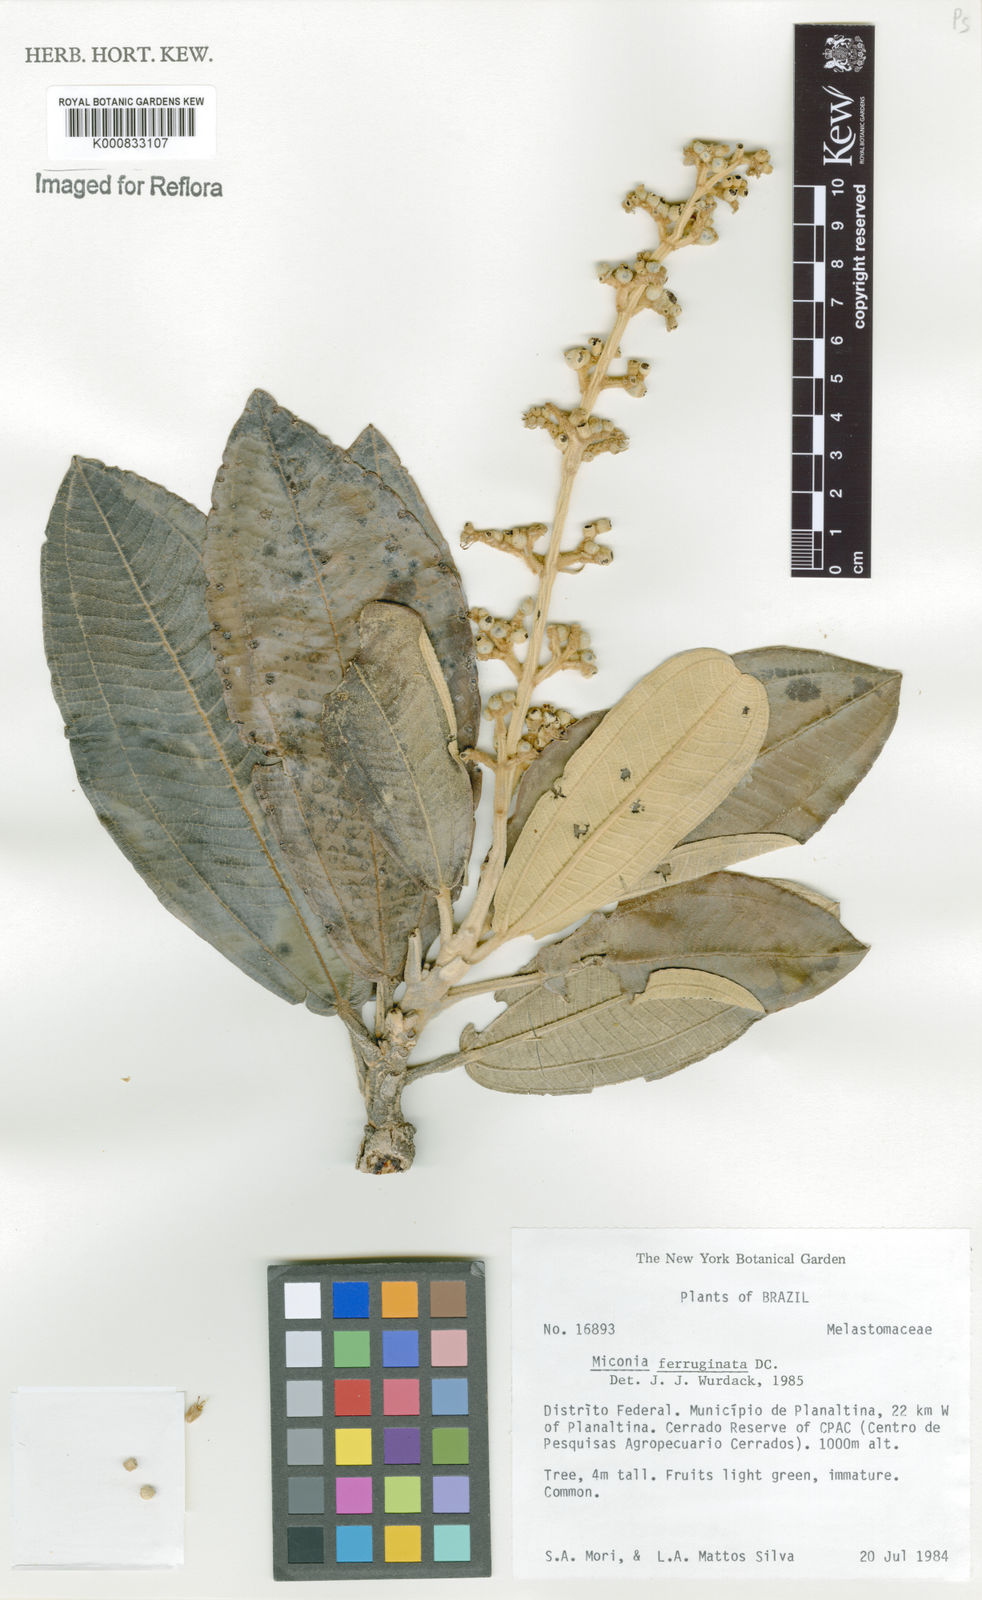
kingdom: Plantae
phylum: Tracheophyta
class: Magnoliopsida
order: Myrtales
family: Melastomataceae
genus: Miconia
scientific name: Miconia ferruginata
